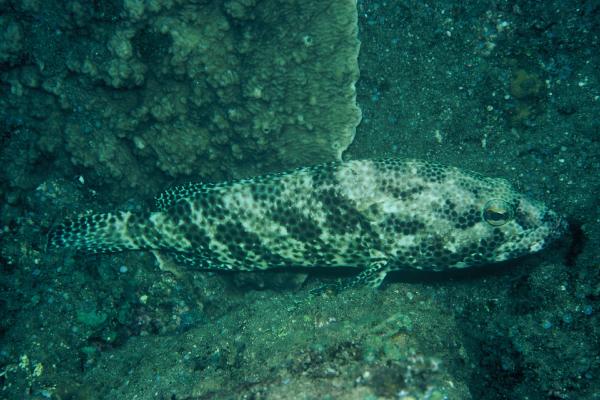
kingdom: Animalia
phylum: Chordata
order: Perciformes
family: Serranidae
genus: Epinephelus
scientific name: Epinephelus tauvina
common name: Greasy grouper
